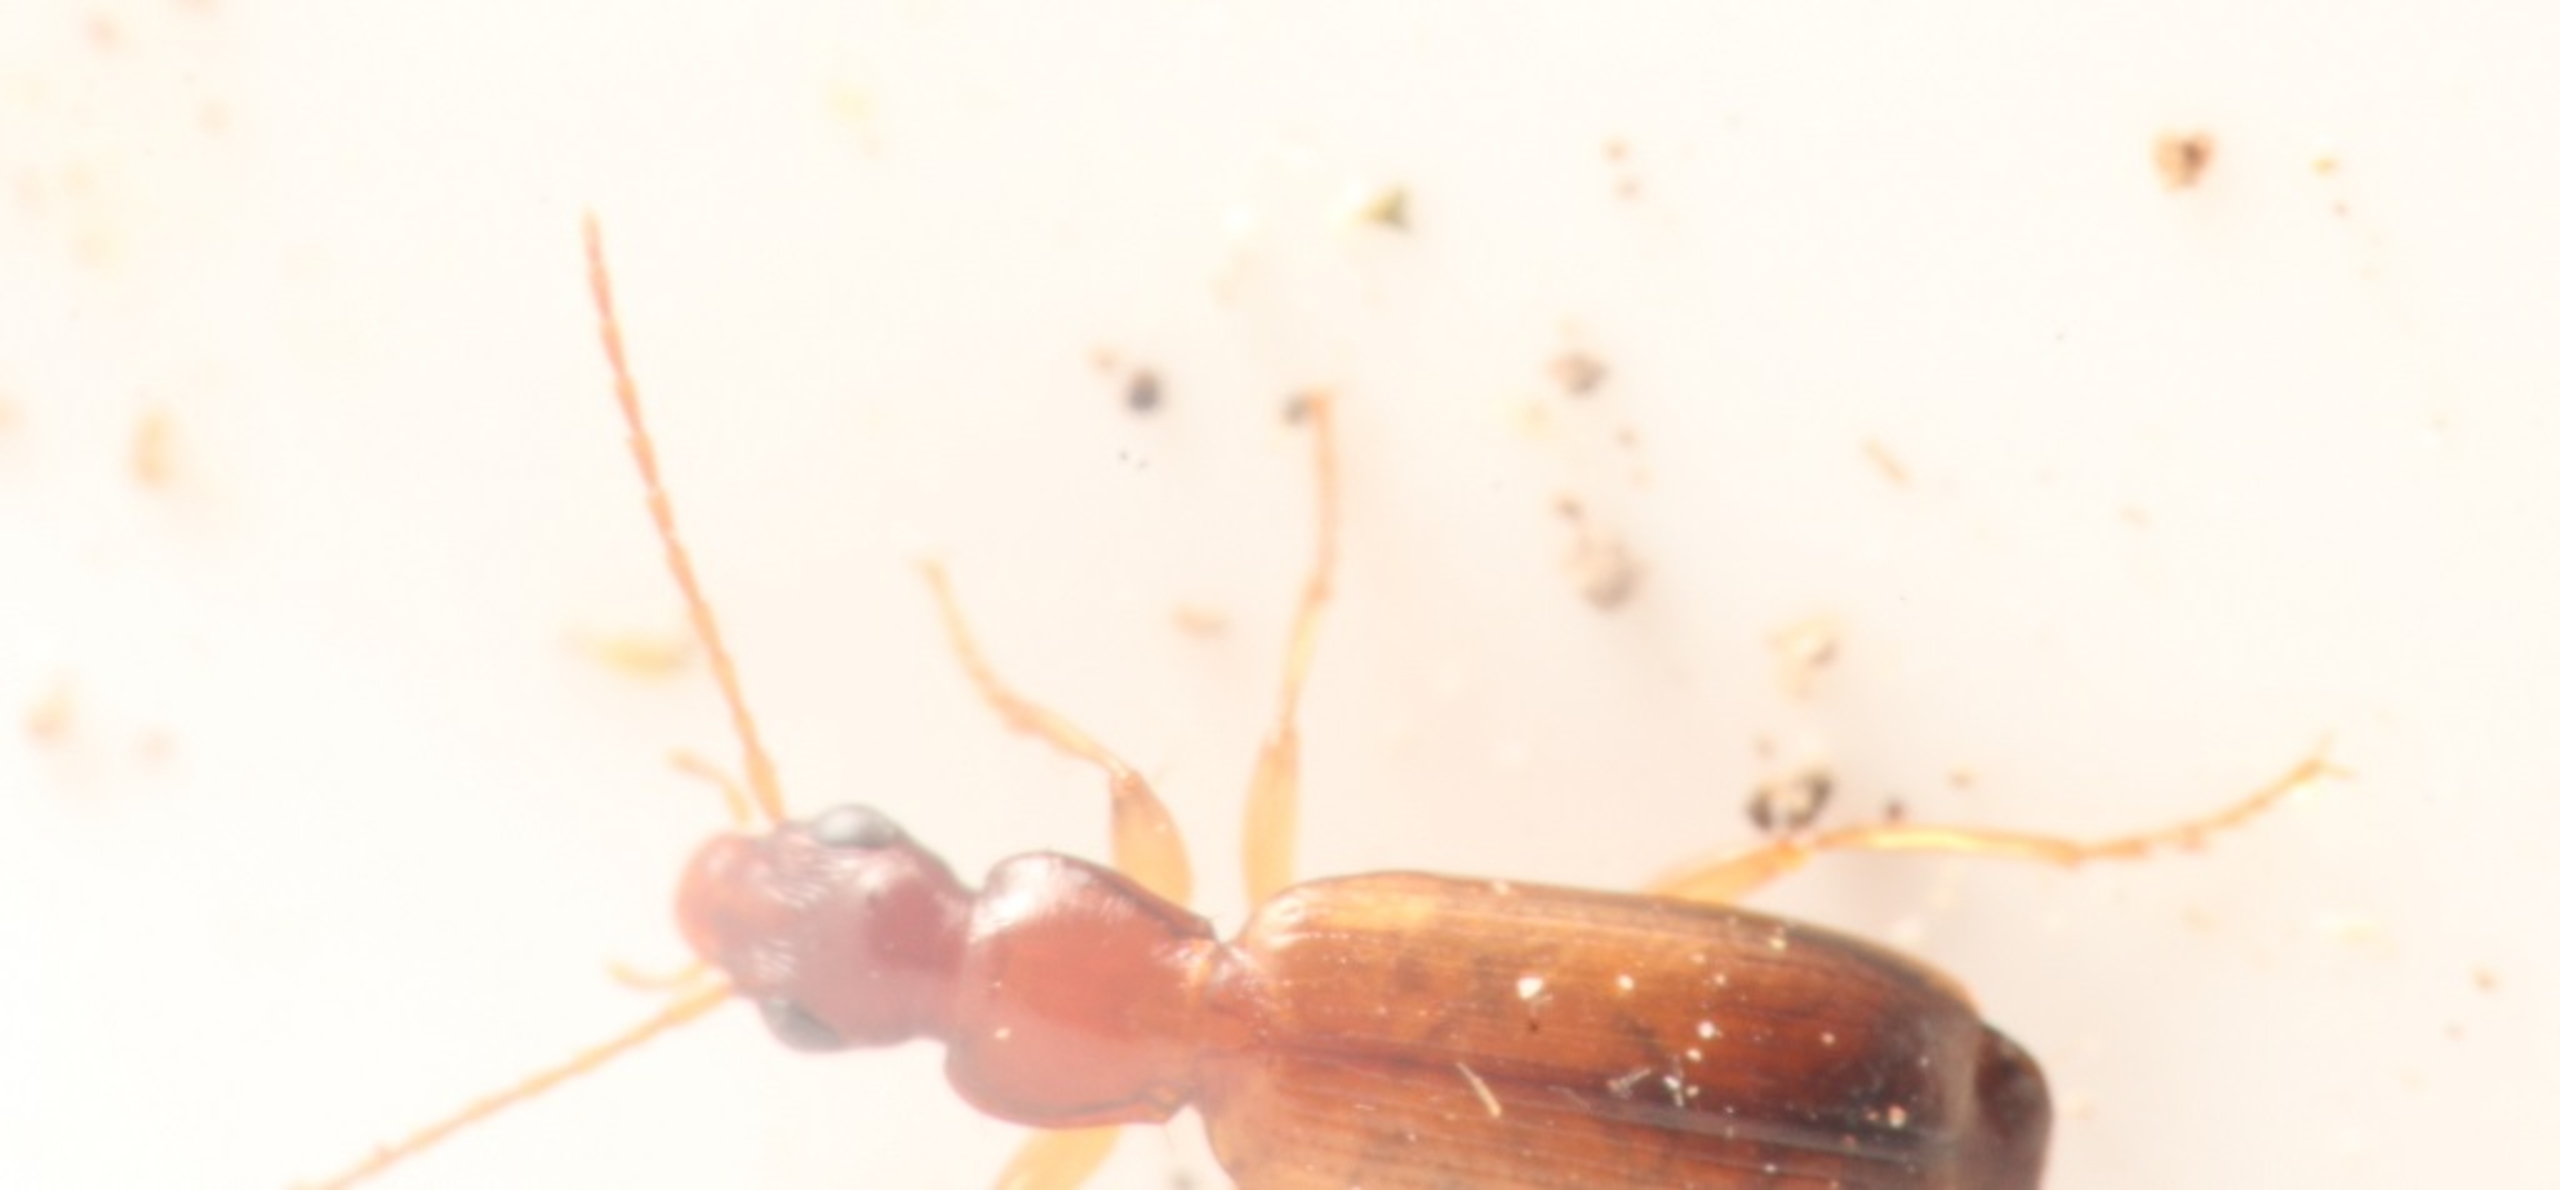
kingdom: Animalia
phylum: Arthropoda
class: Insecta
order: Coleoptera
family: Carabidae
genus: Paradromius
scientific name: Paradromius linearis
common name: Smal sivløber
